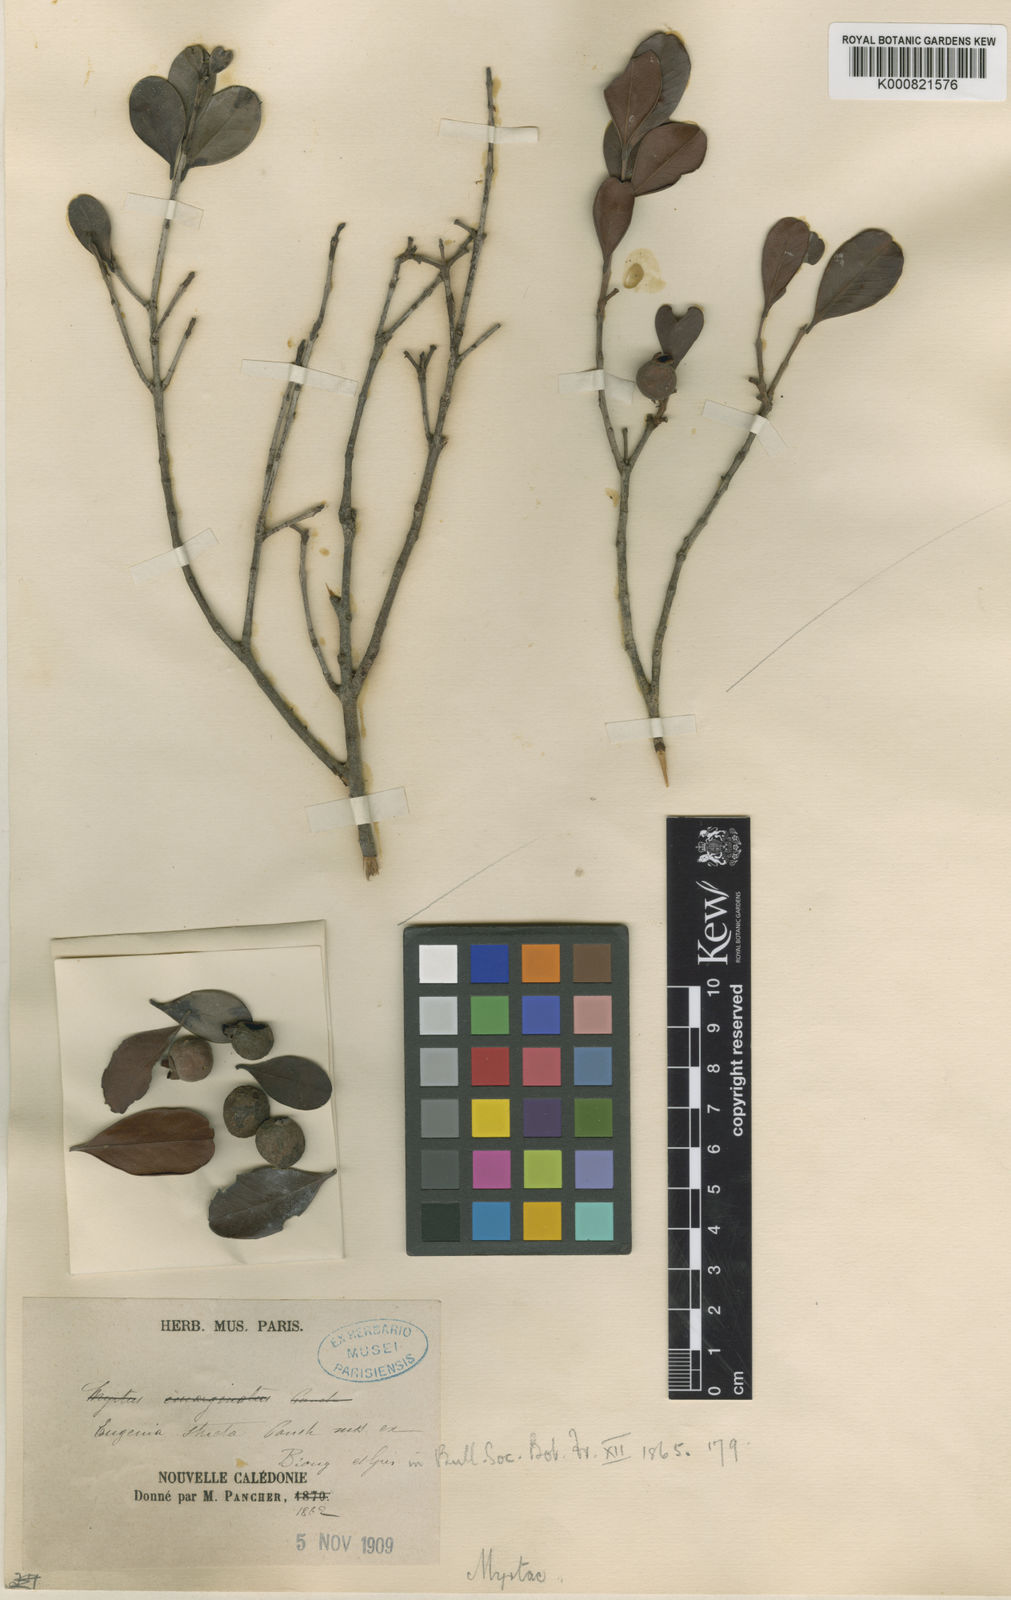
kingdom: Plantae
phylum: Tracheophyta
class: Magnoliopsida
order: Myrtales
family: Myrtaceae
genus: Austromyrtus
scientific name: Austromyrtus stricta
